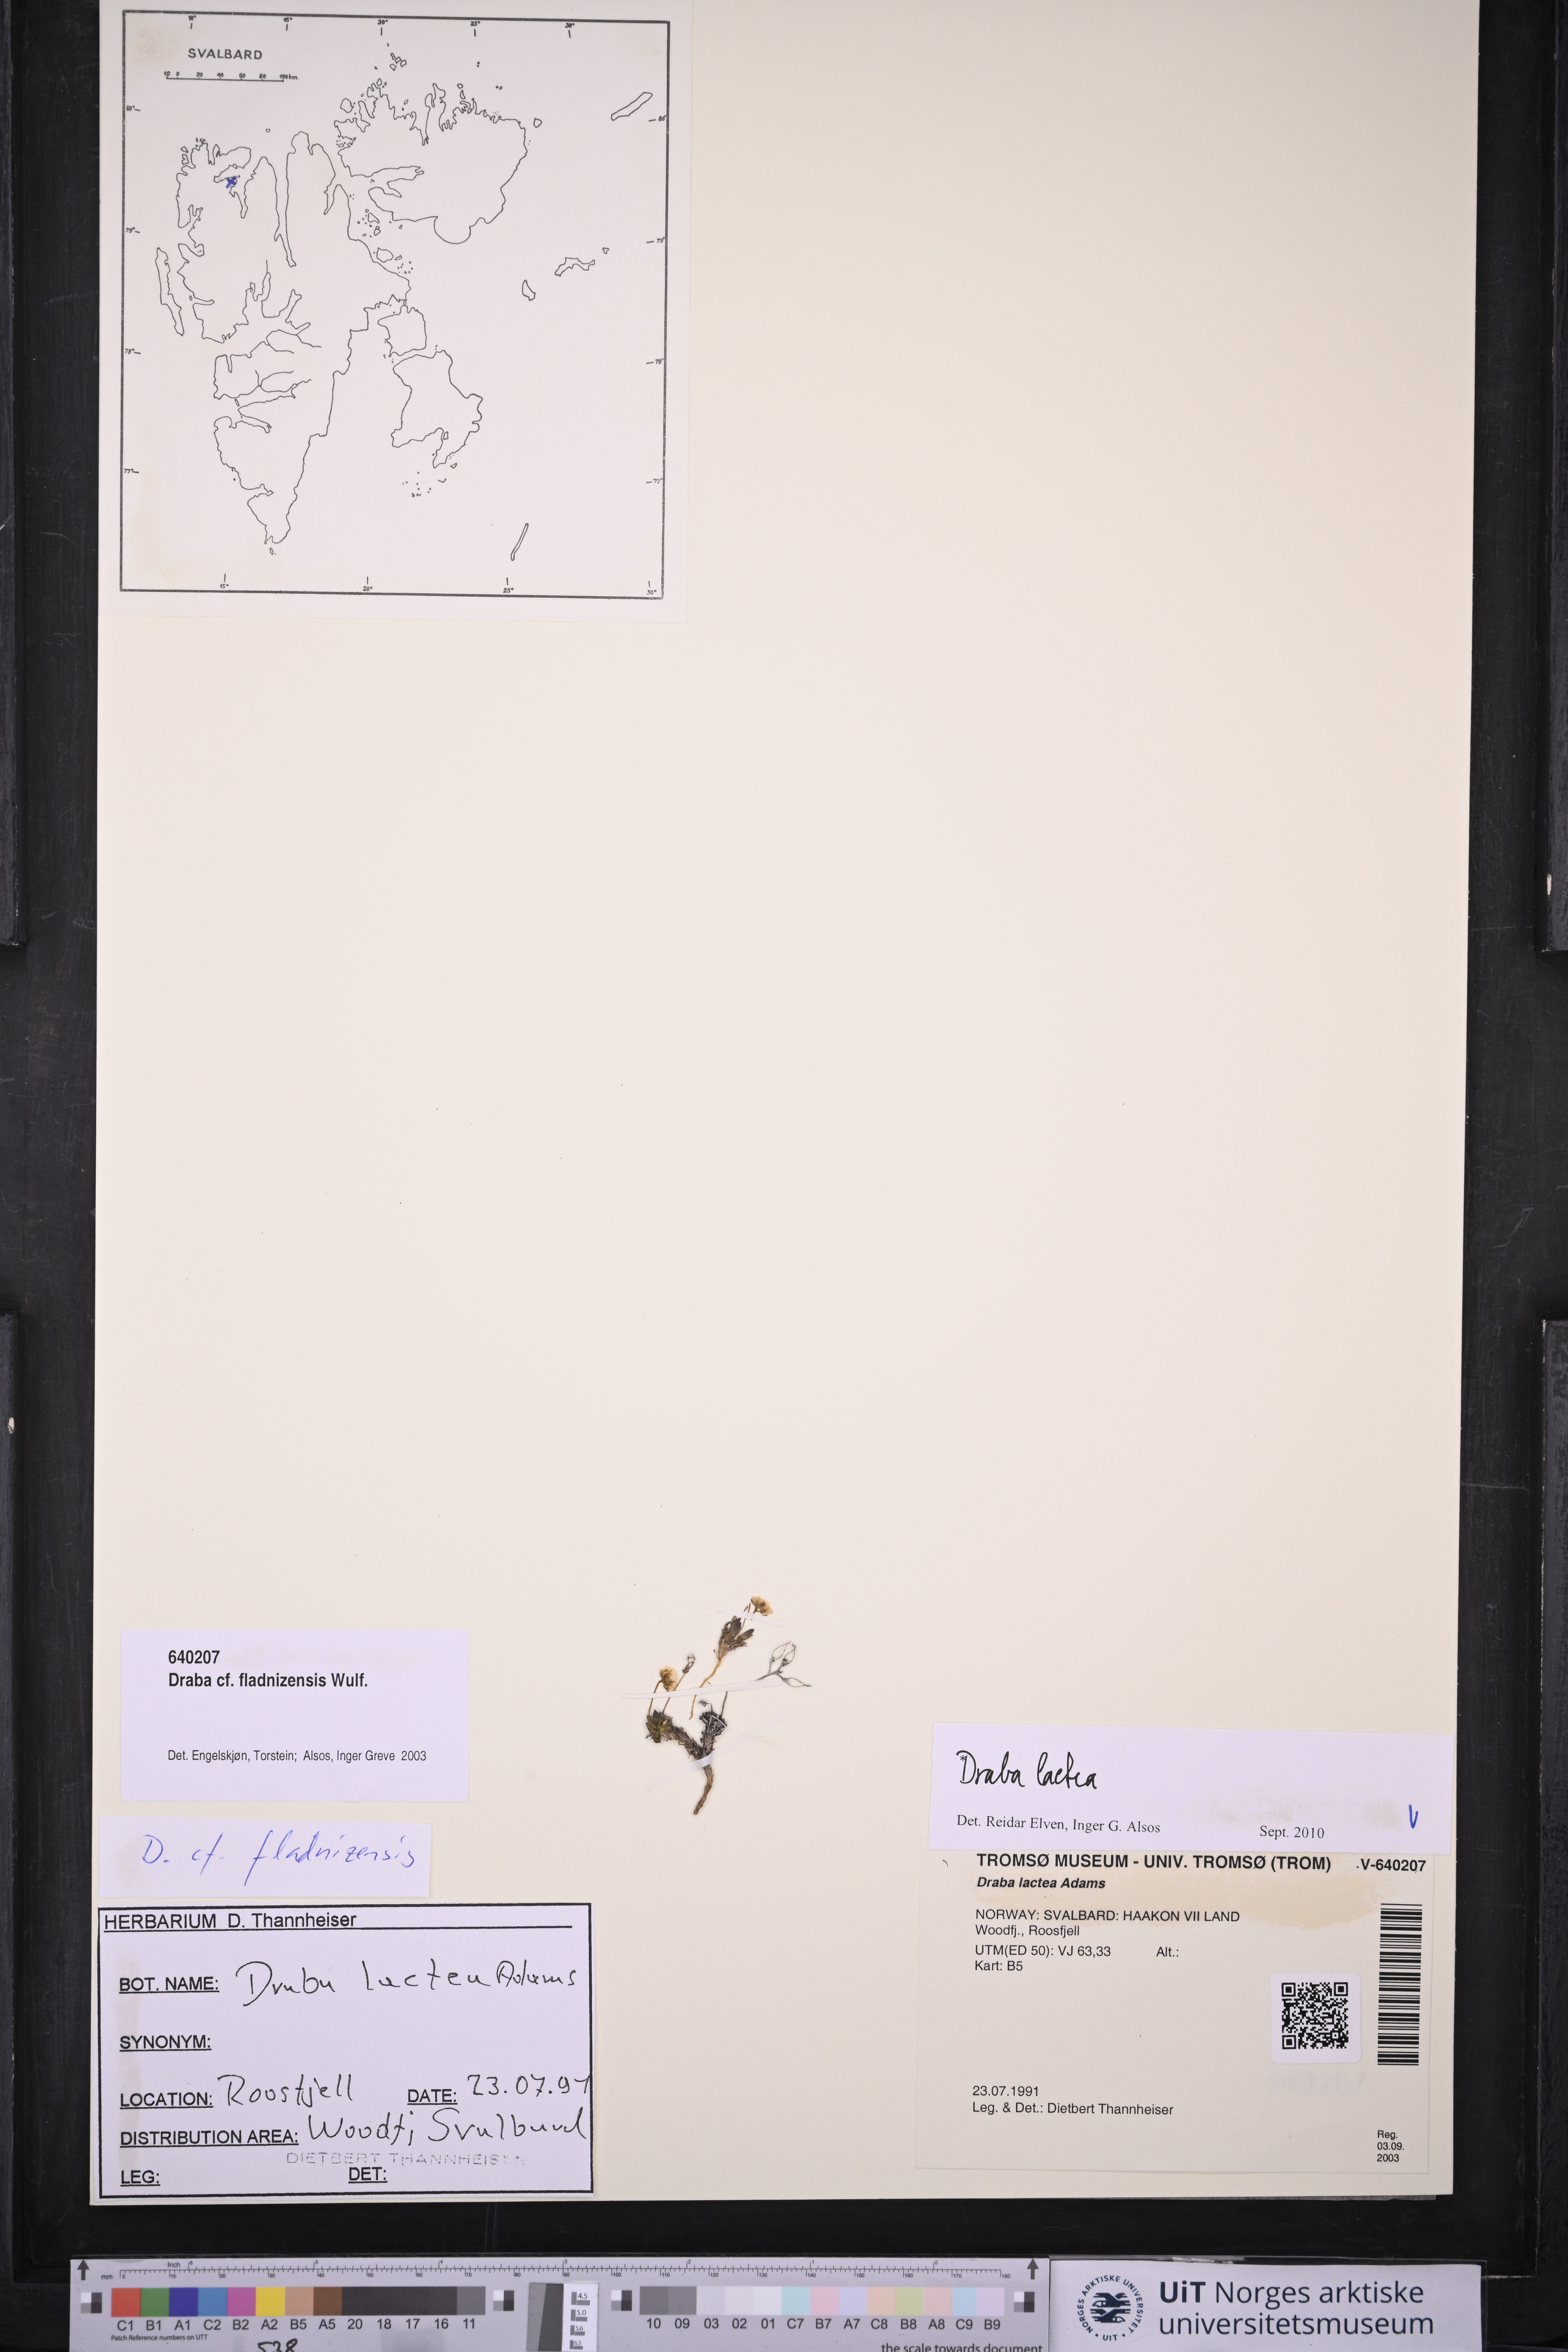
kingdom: Plantae
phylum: Tracheophyta
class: Magnoliopsida
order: Brassicales
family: Brassicaceae
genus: Draba
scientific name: Draba lactea
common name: Milky draba
